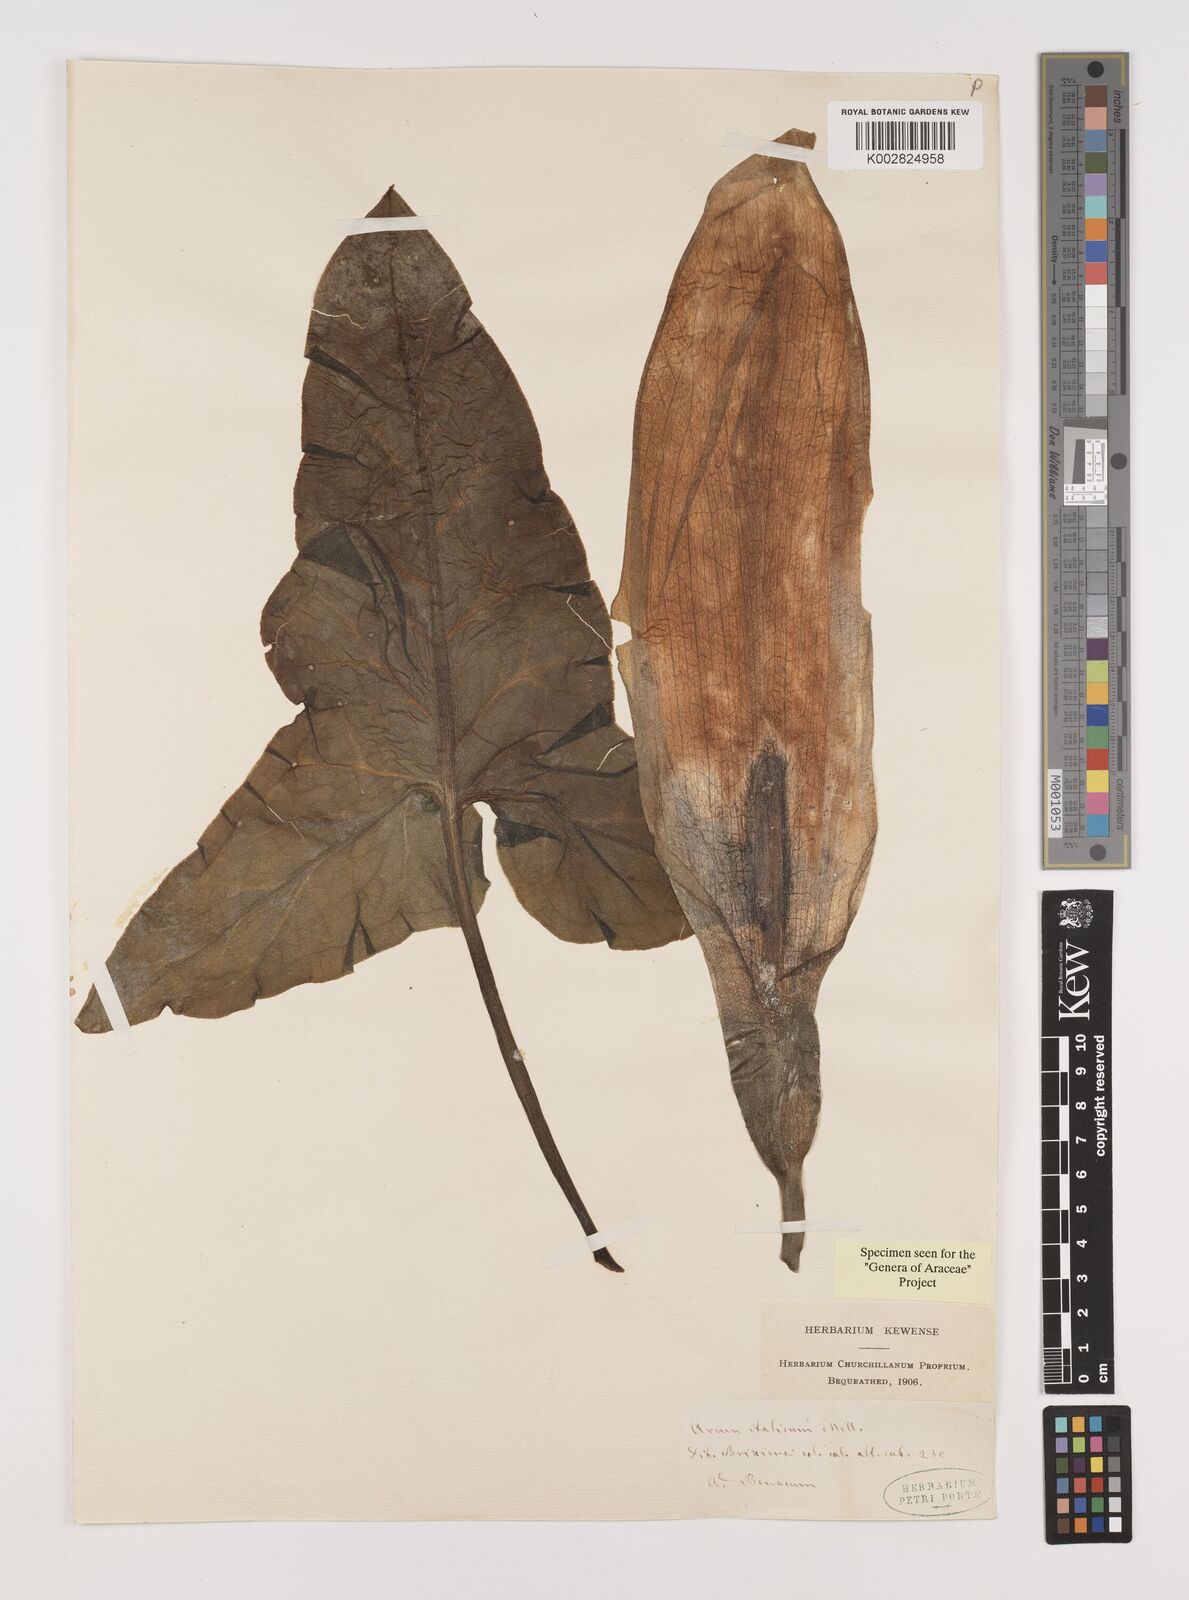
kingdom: Plantae
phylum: Tracheophyta
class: Liliopsida
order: Alismatales
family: Araceae
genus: Arum
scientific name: Arum italicum
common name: Italian lords-and-ladies
